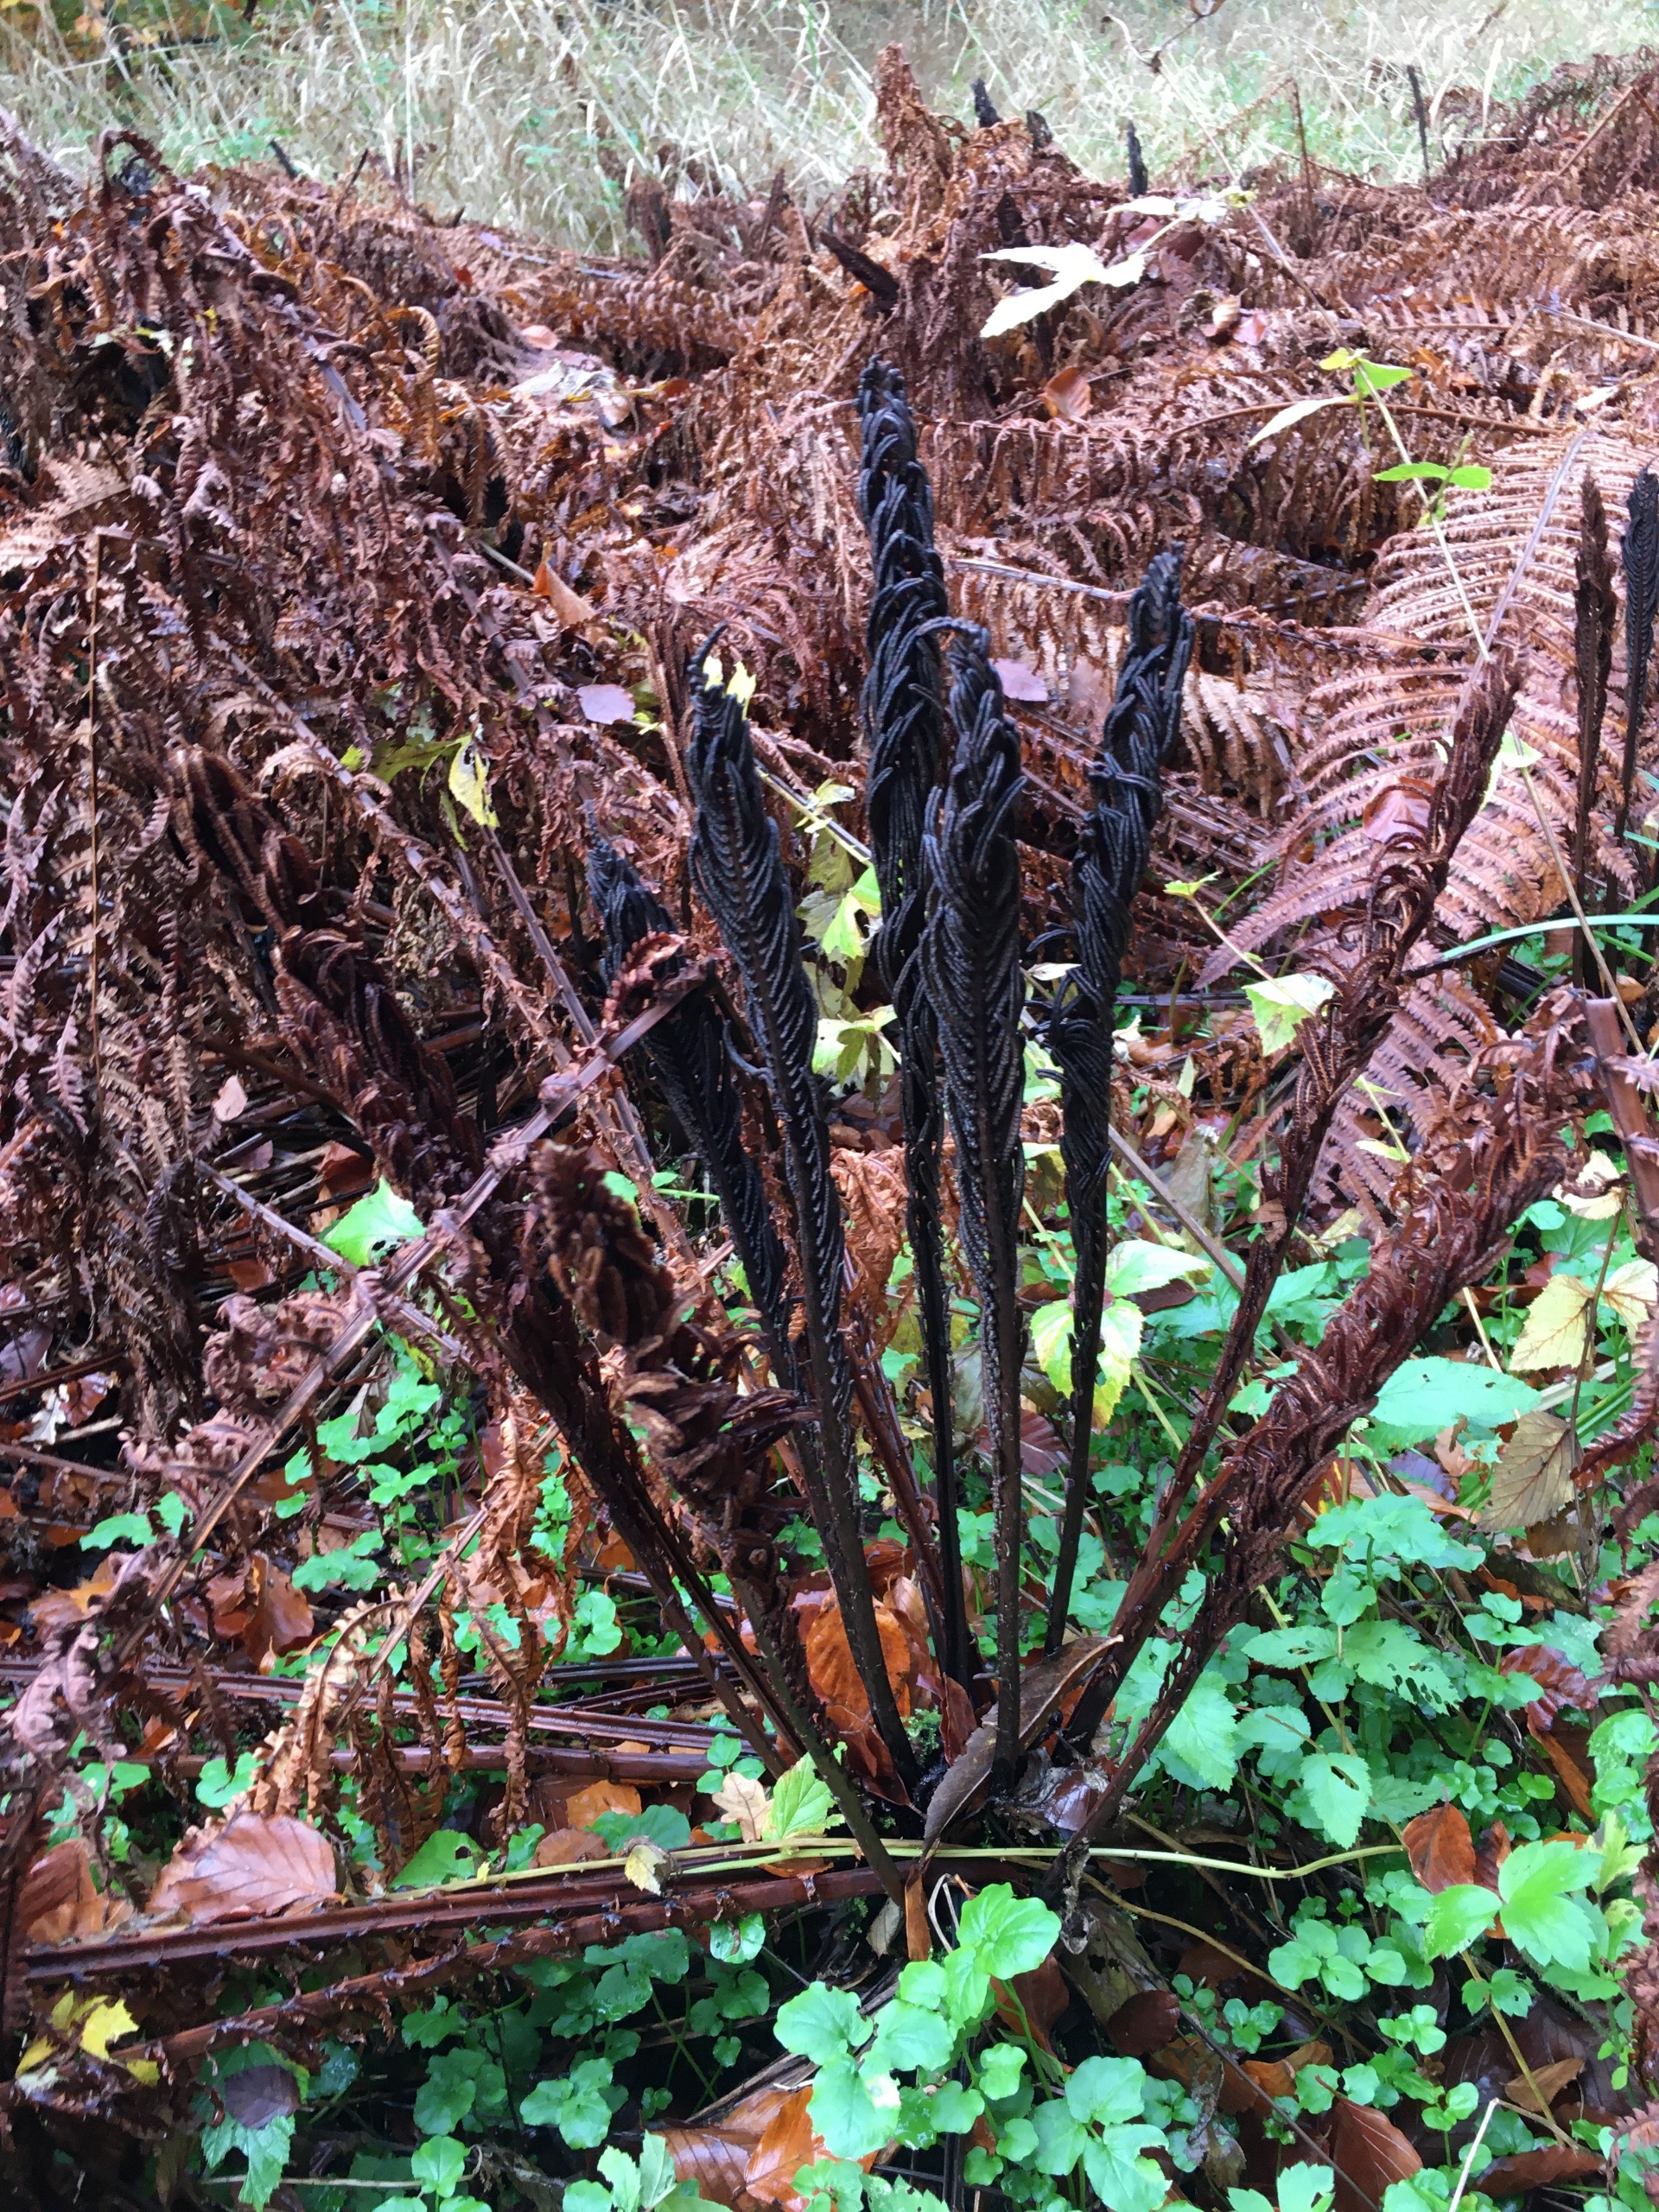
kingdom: Plantae
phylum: Tracheophyta
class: Polypodiopsida
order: Polypodiales
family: Onocleaceae
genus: Matteuccia
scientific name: Matteuccia struthiopteris
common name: Strudsvinge
